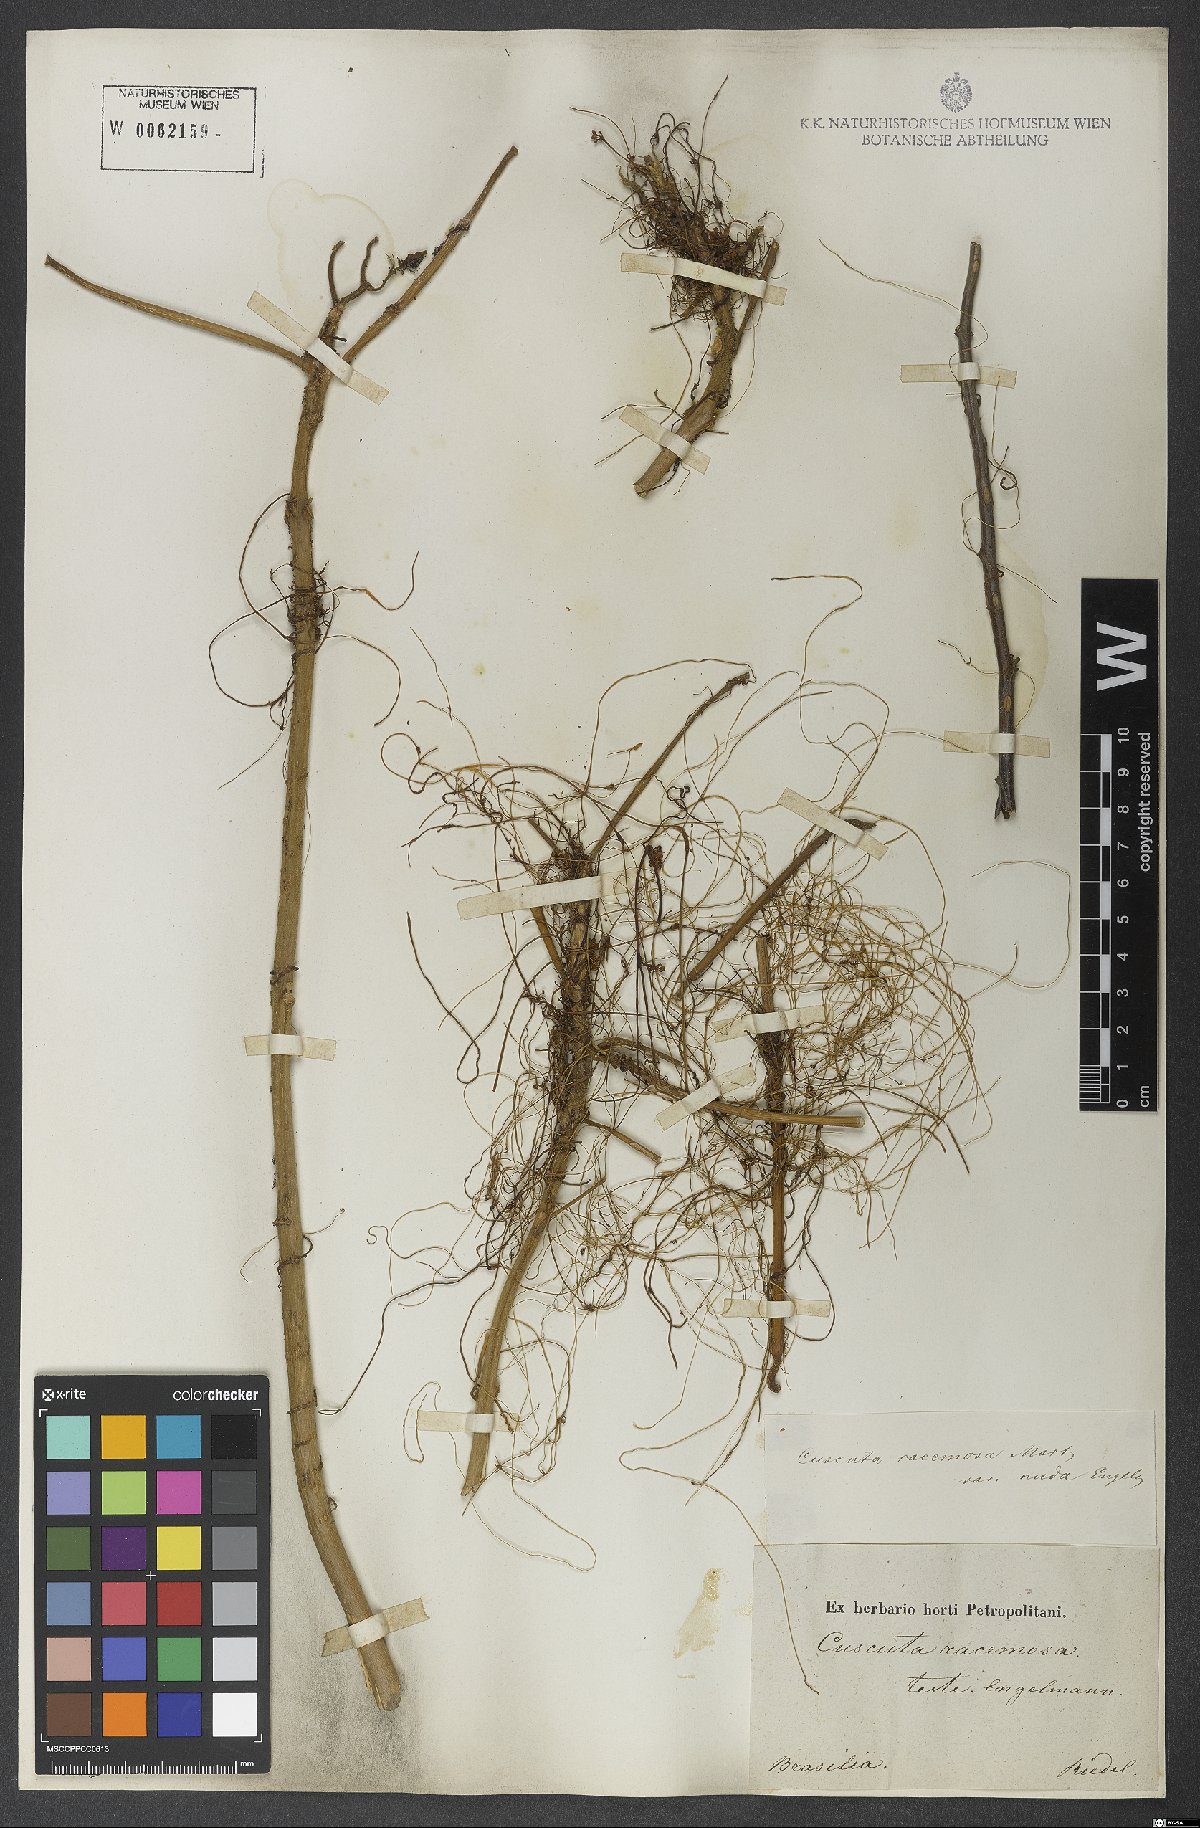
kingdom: Plantae
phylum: Tracheophyta
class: Magnoliopsida
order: Solanales
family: Convolvulaceae
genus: Cuscuta
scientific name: Cuscuta racemosa
